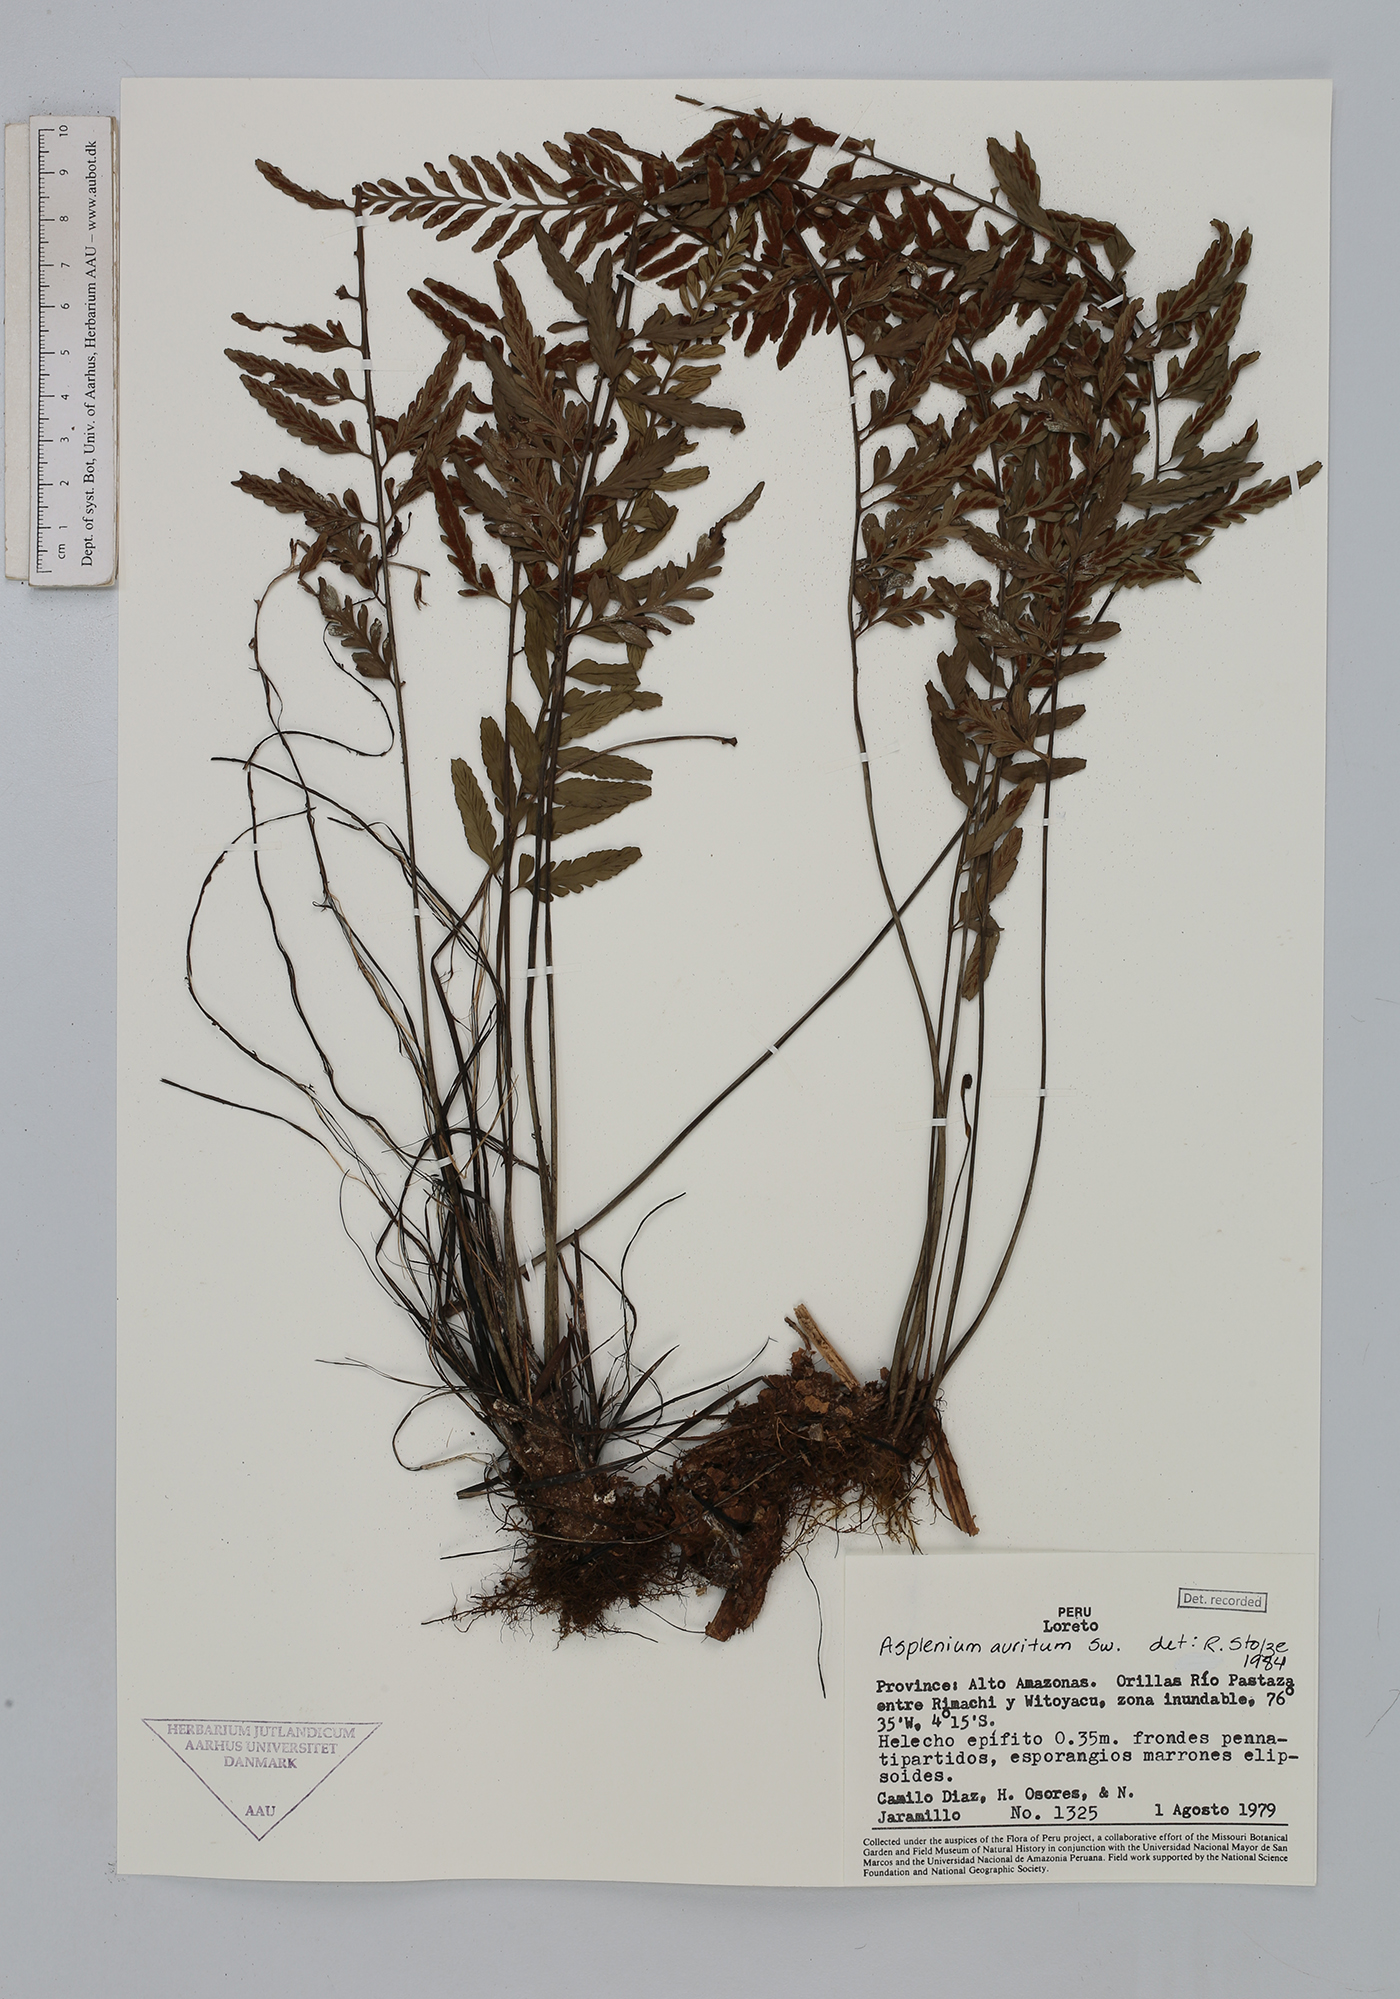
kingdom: Plantae
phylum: Tracheophyta
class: Polypodiopsida
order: Polypodiales
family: Aspleniaceae
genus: Asplenium
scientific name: Asplenium auritum
